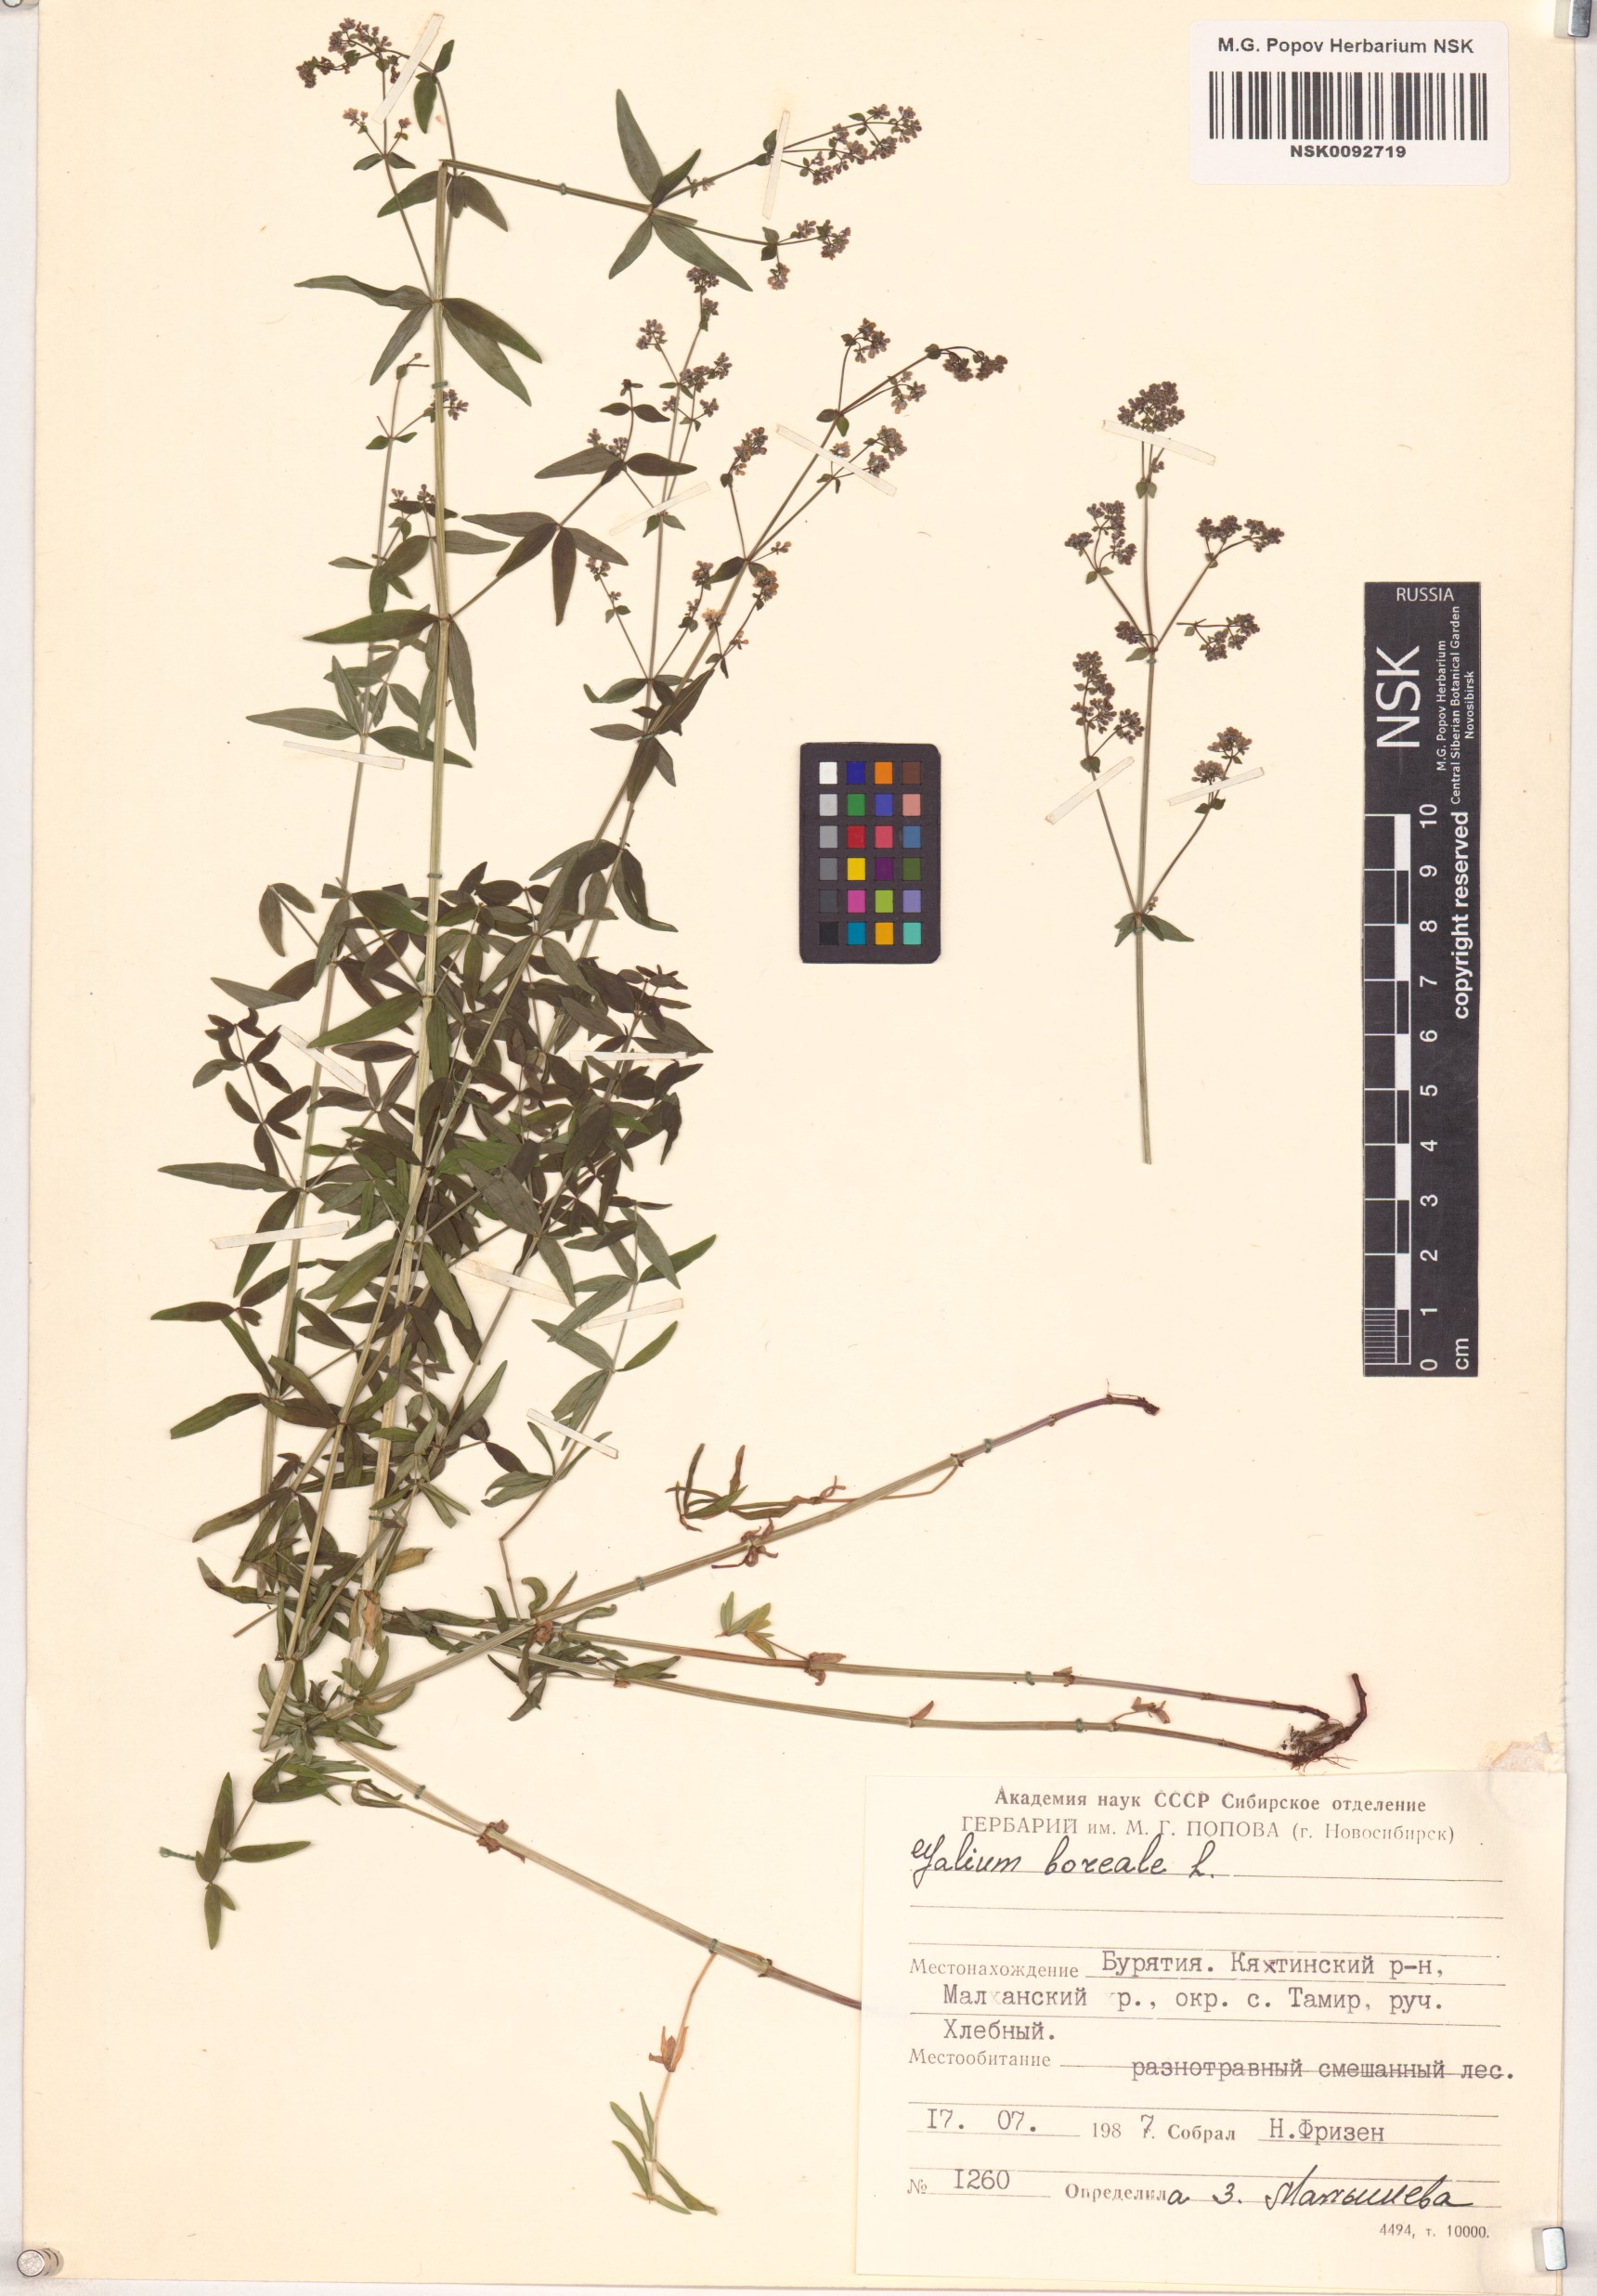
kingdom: Plantae
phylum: Tracheophyta
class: Magnoliopsida
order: Gentianales
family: Rubiaceae
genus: Galium
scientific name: Galium boreale
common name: Northern bedstraw
